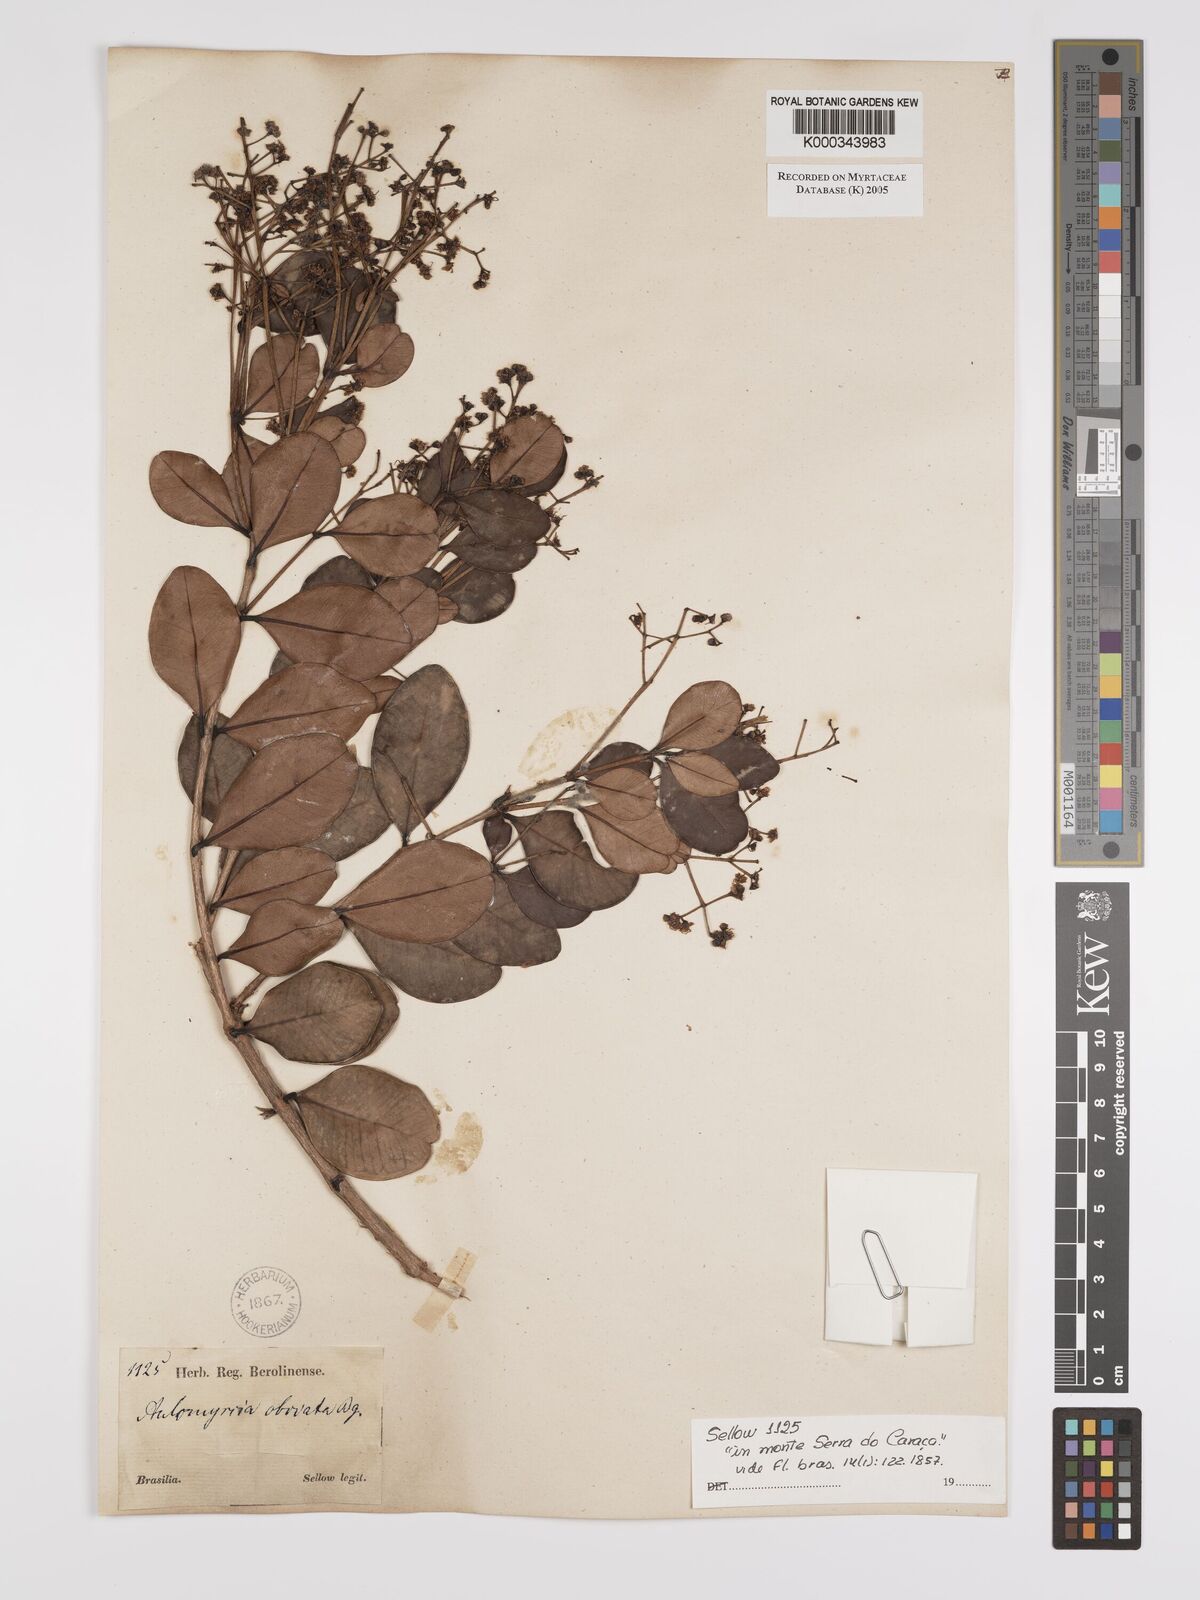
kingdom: Plantae
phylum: Tracheophyta
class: Magnoliopsida
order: Myrtales
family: Myrtaceae
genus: Myrcia
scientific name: Myrcia obovata
